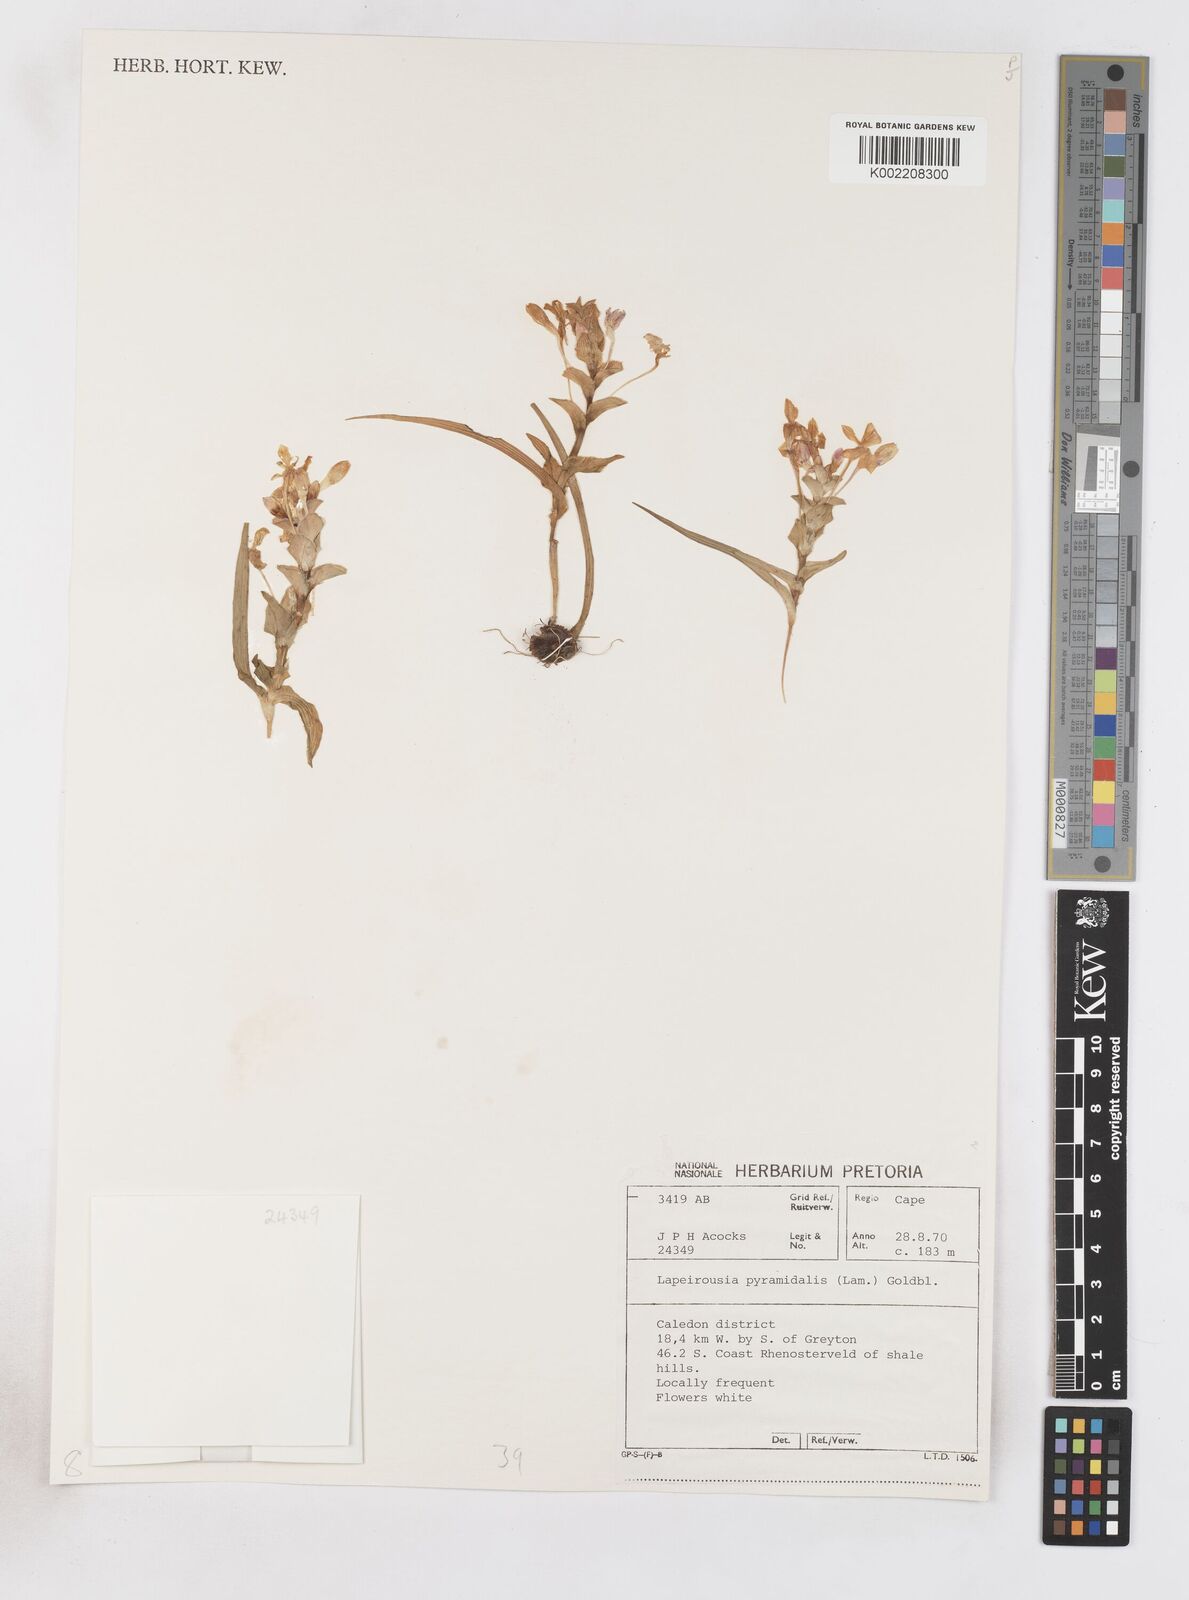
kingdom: Plantae
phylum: Tracheophyta
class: Liliopsida
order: Asparagales
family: Iridaceae
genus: Lapeirousia
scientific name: Lapeirousia pyramidalis
